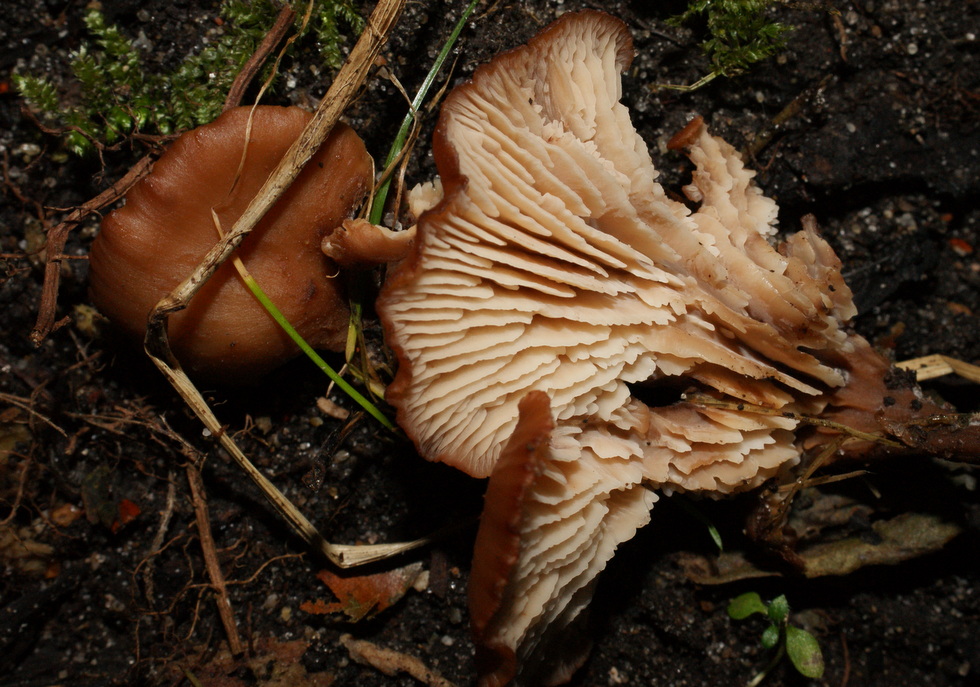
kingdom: Fungi
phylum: Basidiomycota
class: Agaricomycetes
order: Russulales
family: Auriscalpiaceae
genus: Lentinellus
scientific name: Lentinellus cochleatus
